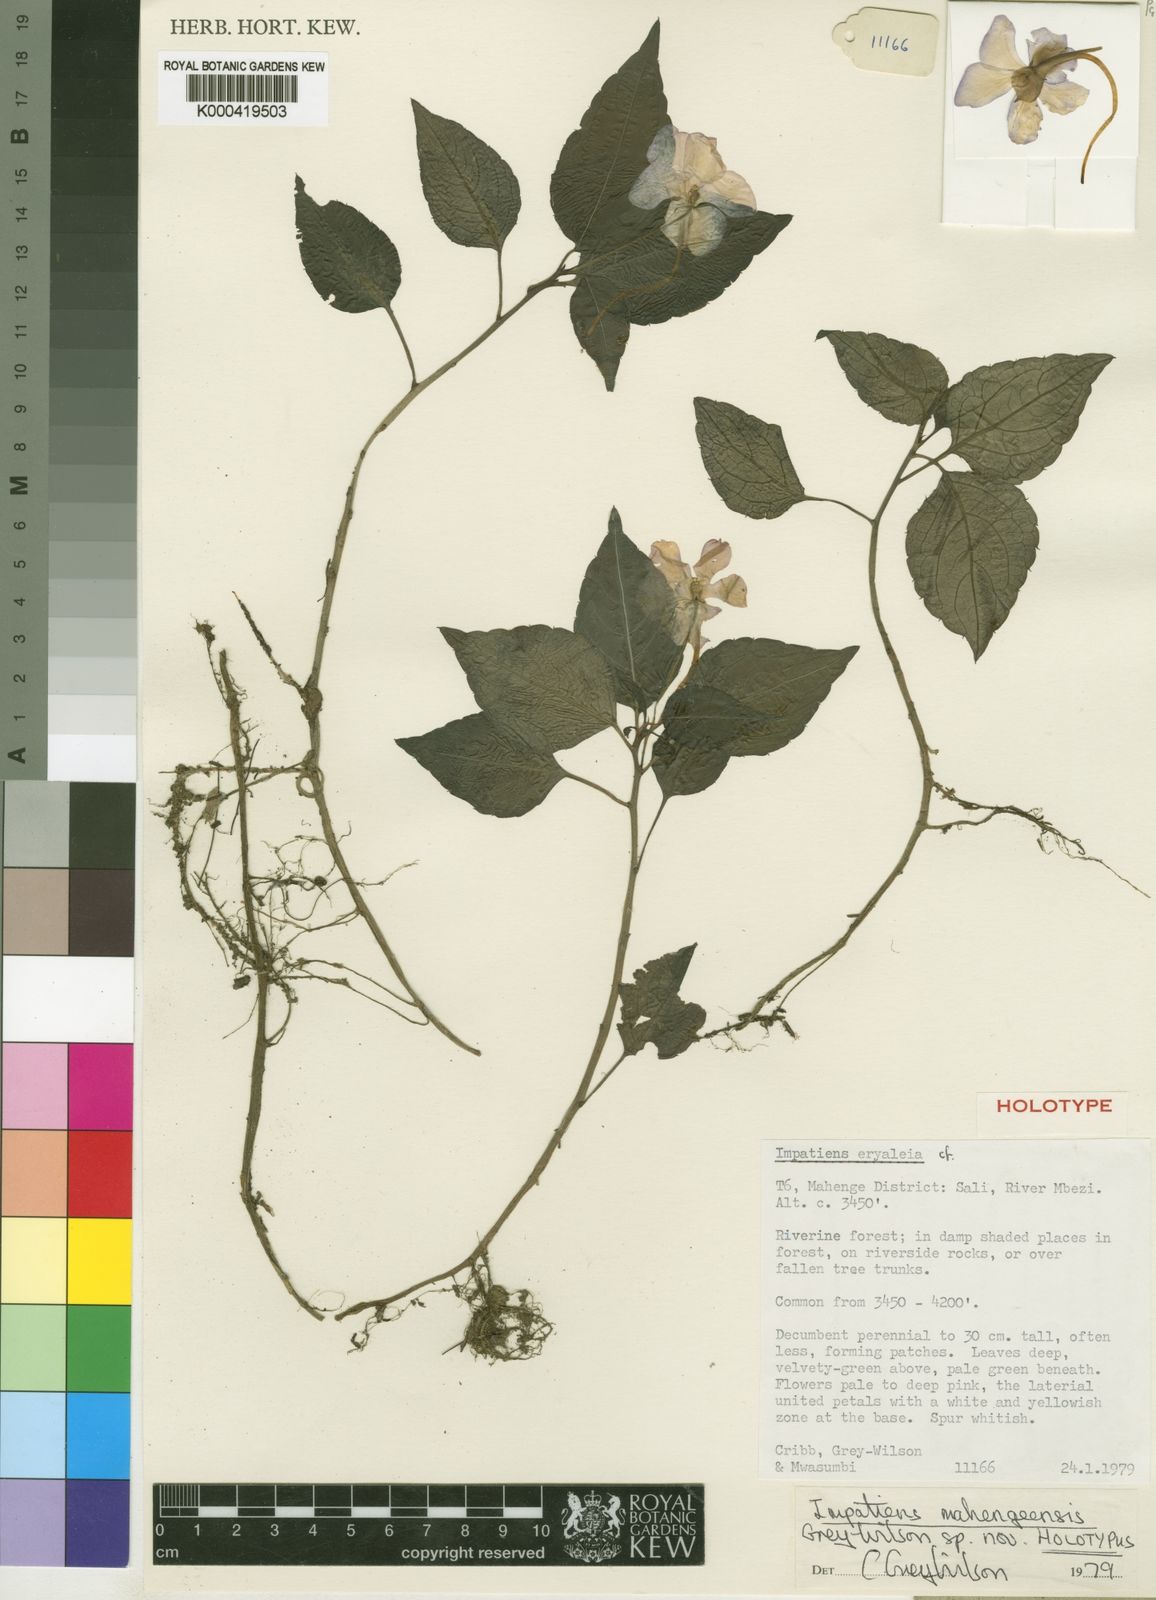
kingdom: Plantae
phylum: Tracheophyta
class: Magnoliopsida
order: Ericales
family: Balsaminaceae
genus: Impatiens
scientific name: Impatiens eryaleia
